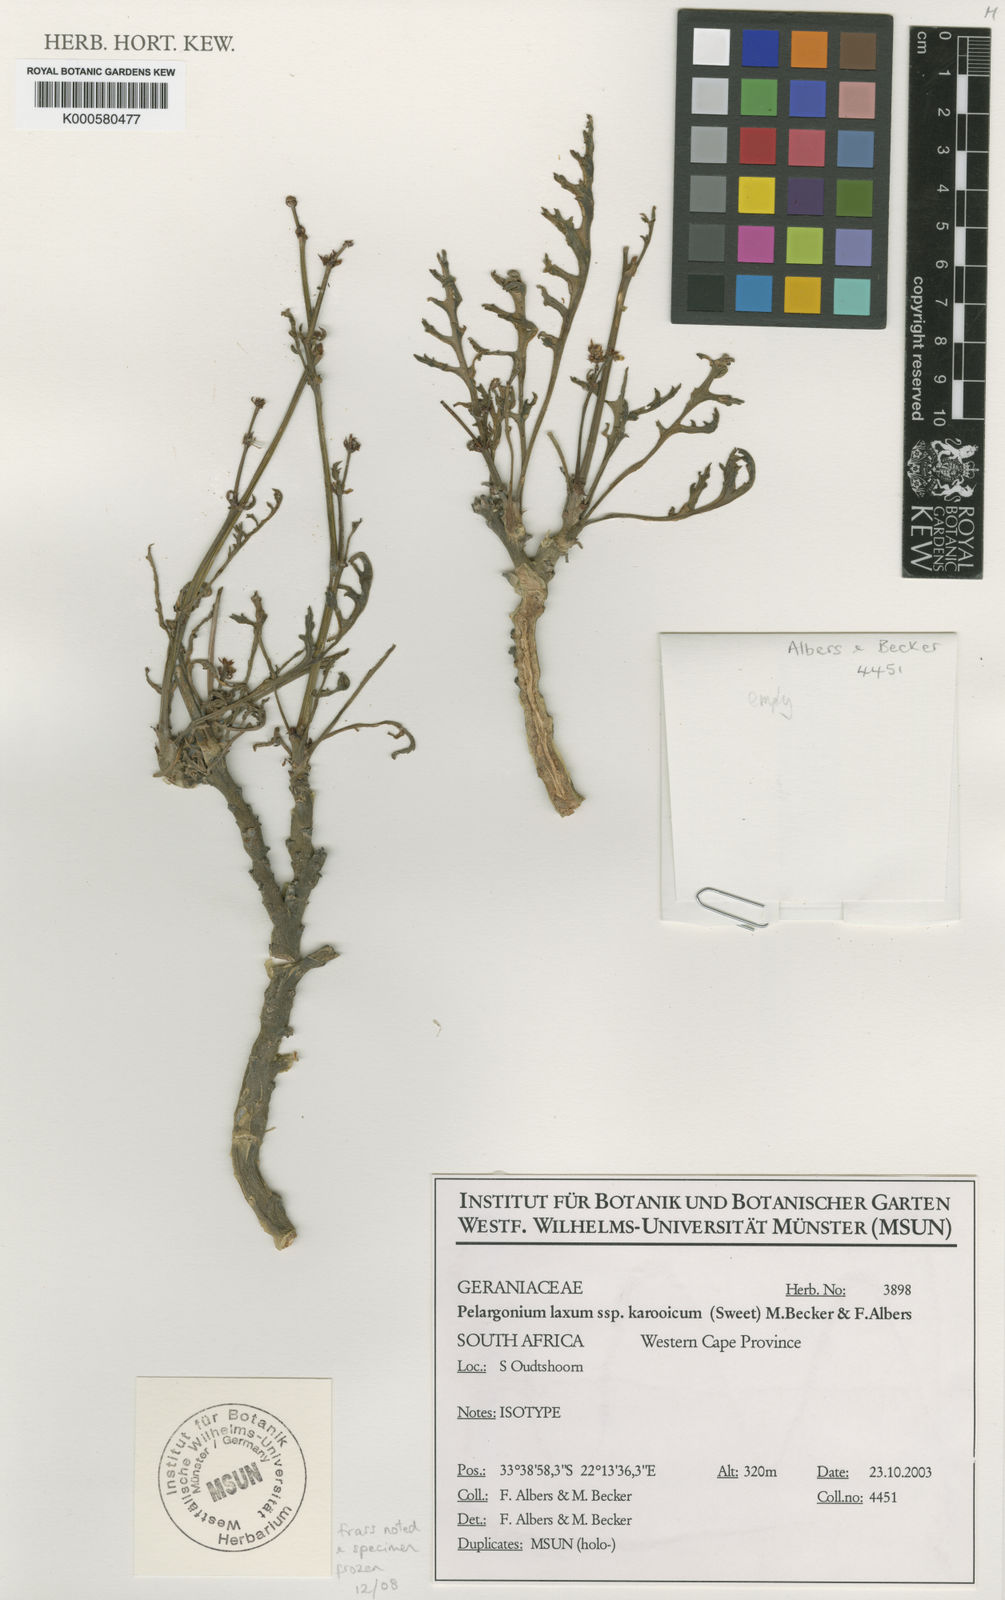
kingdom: Plantae
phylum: Tracheophyta
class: Magnoliopsida
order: Geraniales
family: Geraniaceae
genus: Pelargonium
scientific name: Pelargonium laxum
